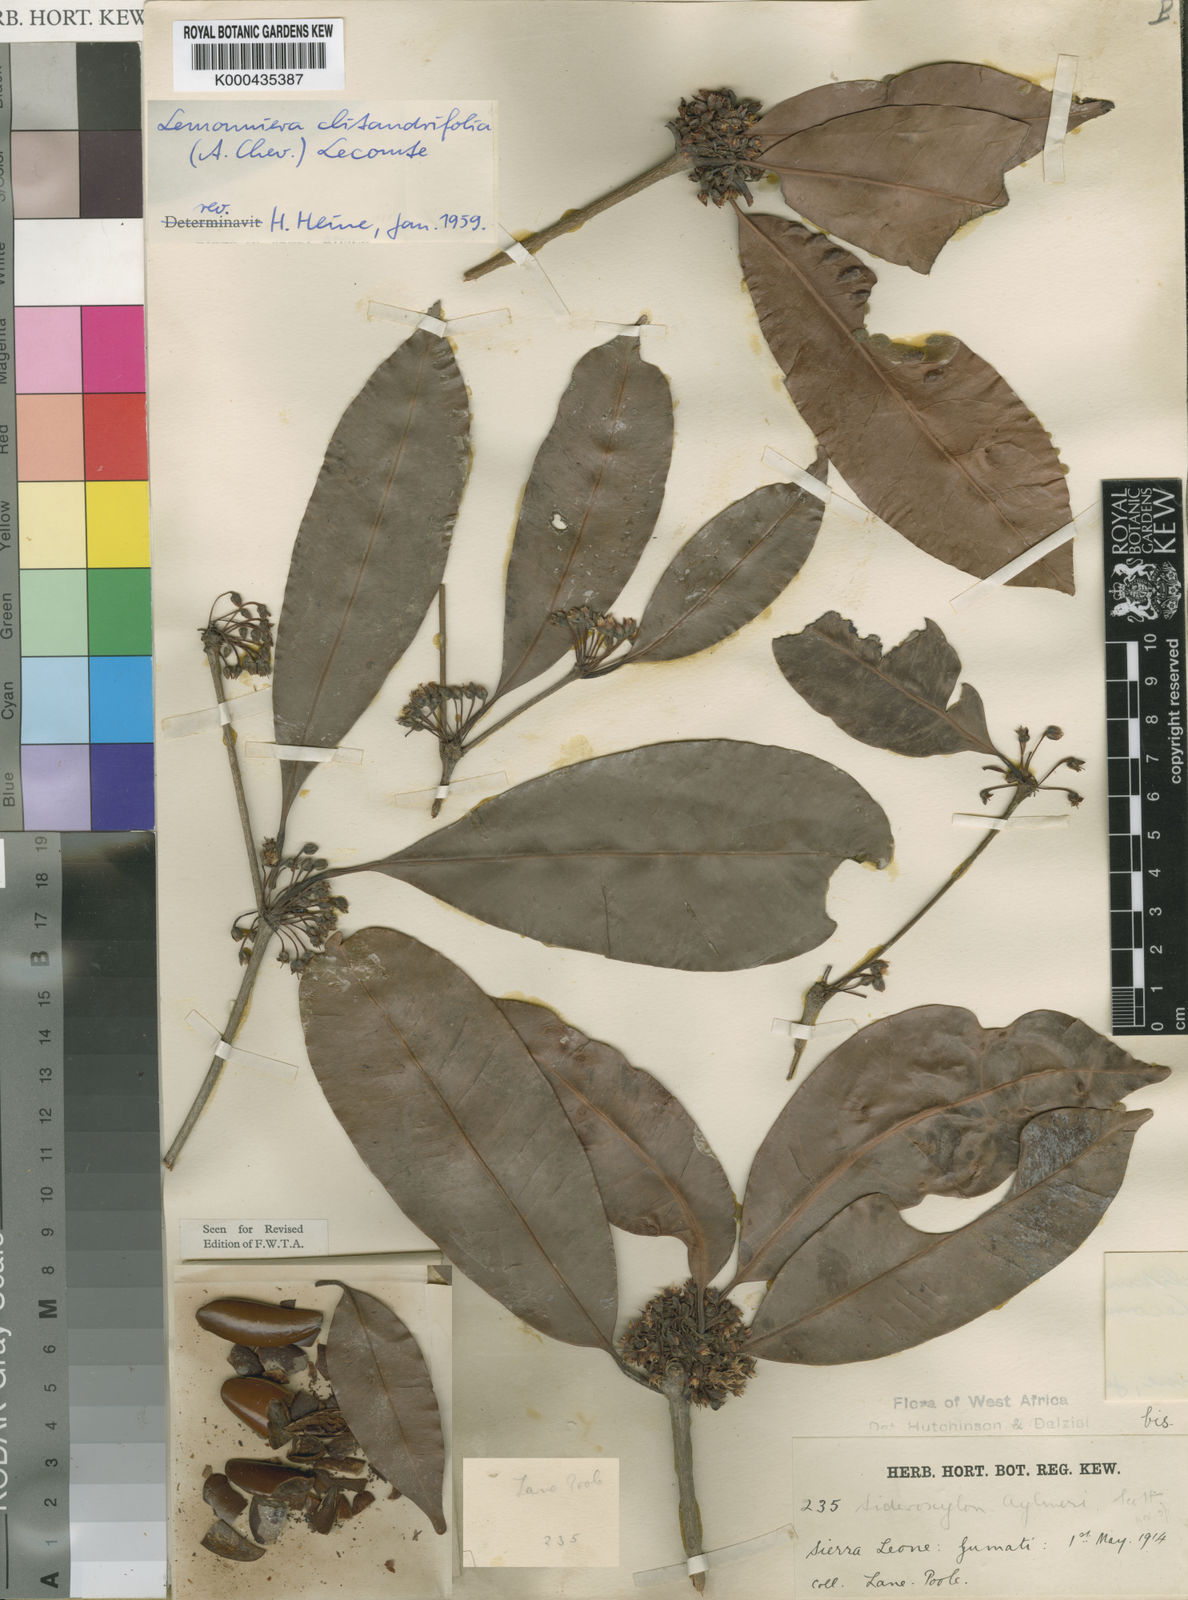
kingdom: Plantae
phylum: Tracheophyta
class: Magnoliopsida
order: Ericales
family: Sapotaceae
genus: Neolemonniera
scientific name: Neolemonniera clitandrifolia
